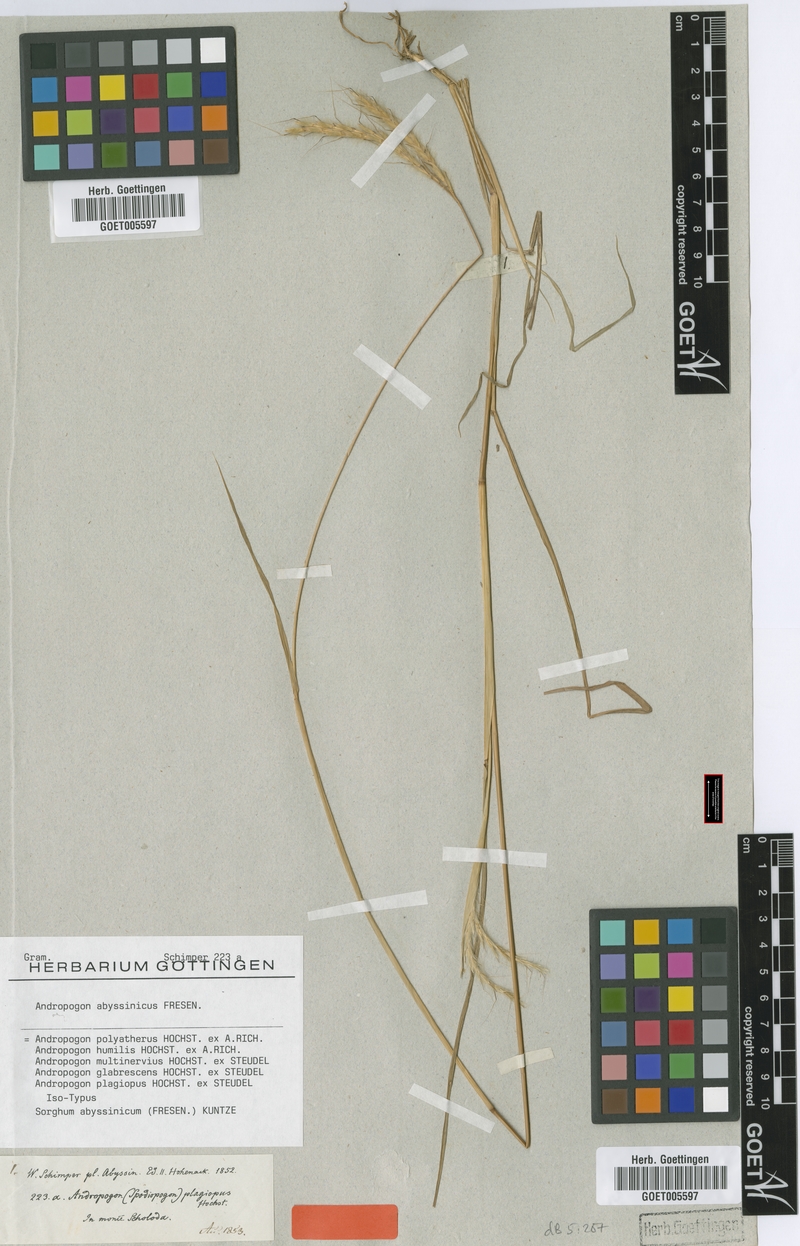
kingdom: Plantae
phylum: Tracheophyta
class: Liliopsida
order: Poales
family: Poaceae
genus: Andropogon
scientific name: Andropogon abyssinicus
